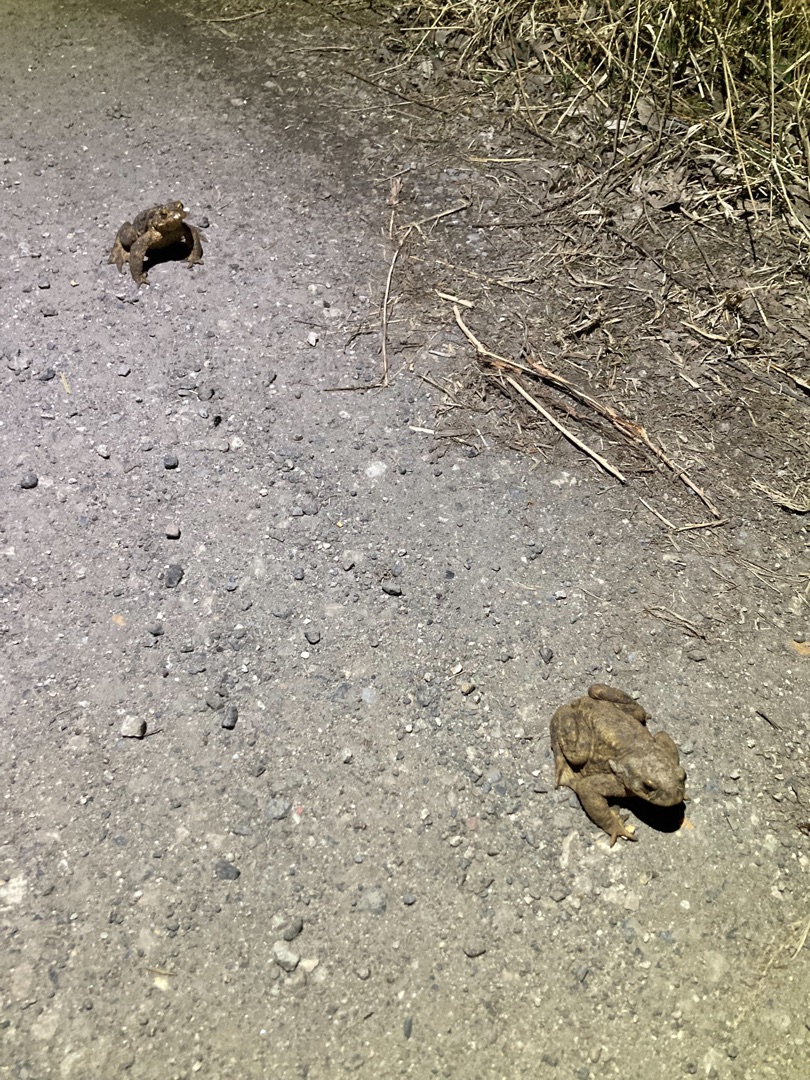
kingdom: Animalia
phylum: Chordata
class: Amphibia
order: Anura
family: Bufonidae
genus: Bufo
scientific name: Bufo bufo
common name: Skrubtudse
